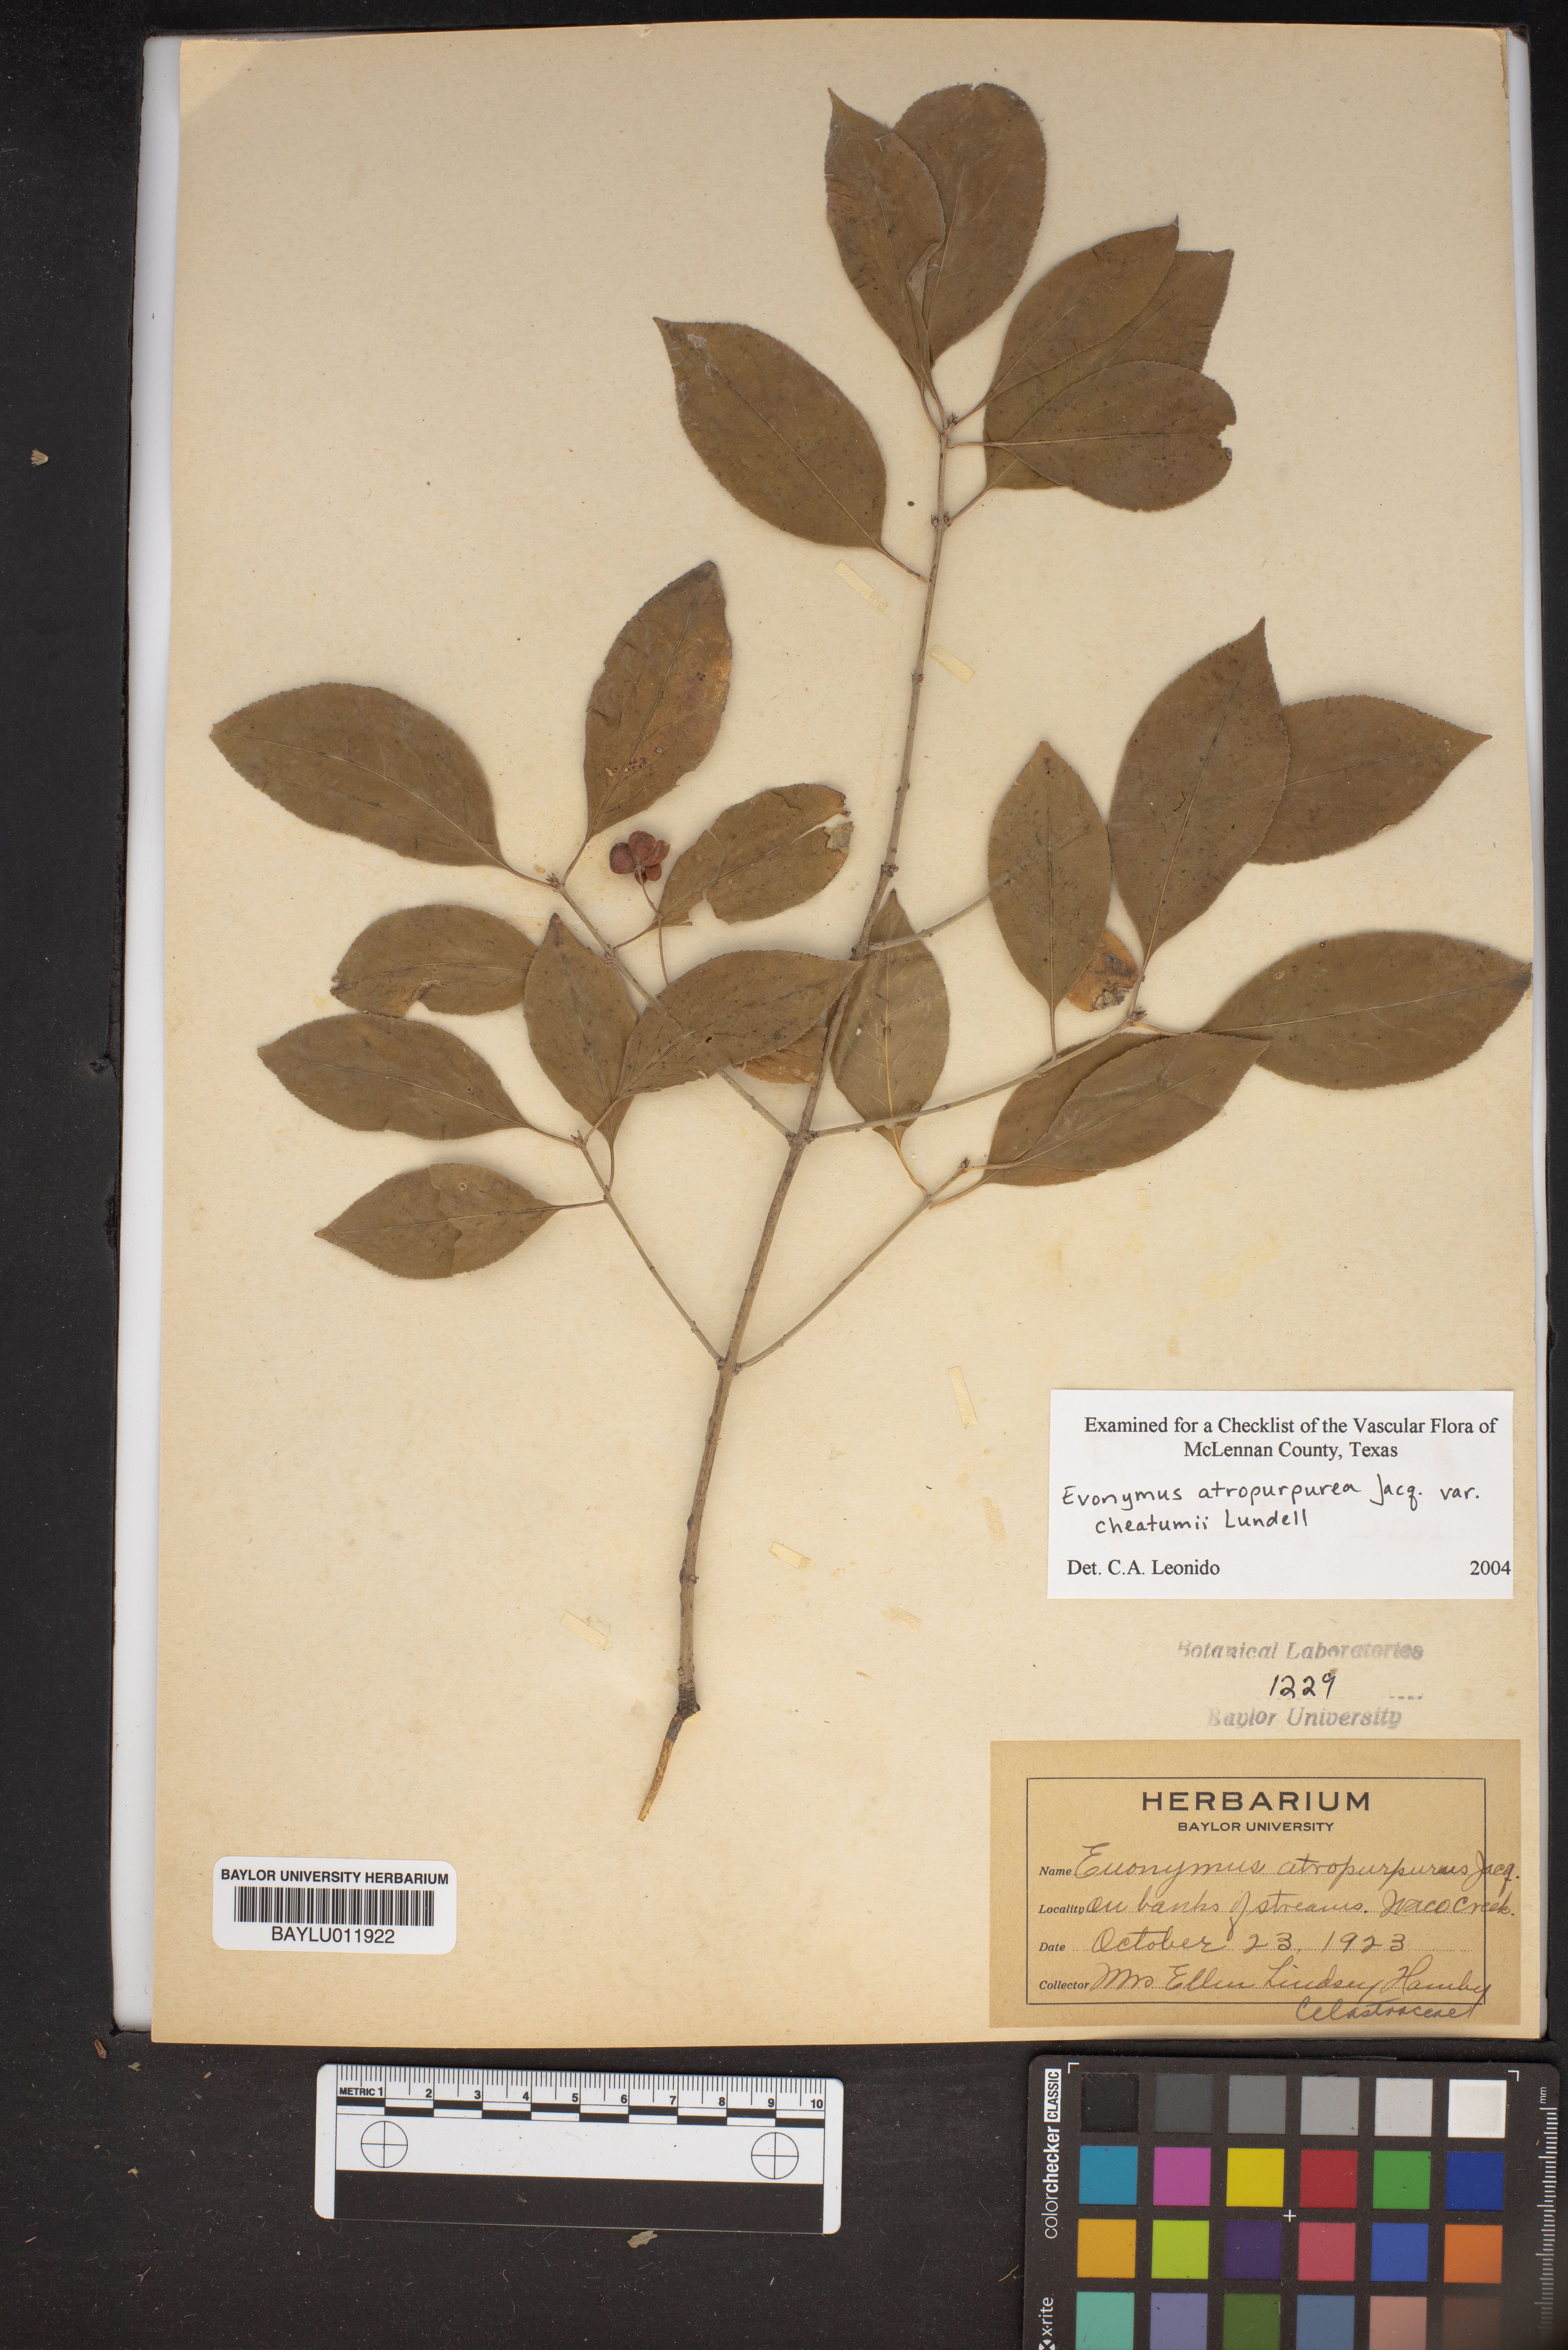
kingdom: Plantae
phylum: Tracheophyta
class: Magnoliopsida
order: Celastrales
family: Celastraceae
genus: Euonymus
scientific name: Euonymus atropurpureus
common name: Eastern wahoo
